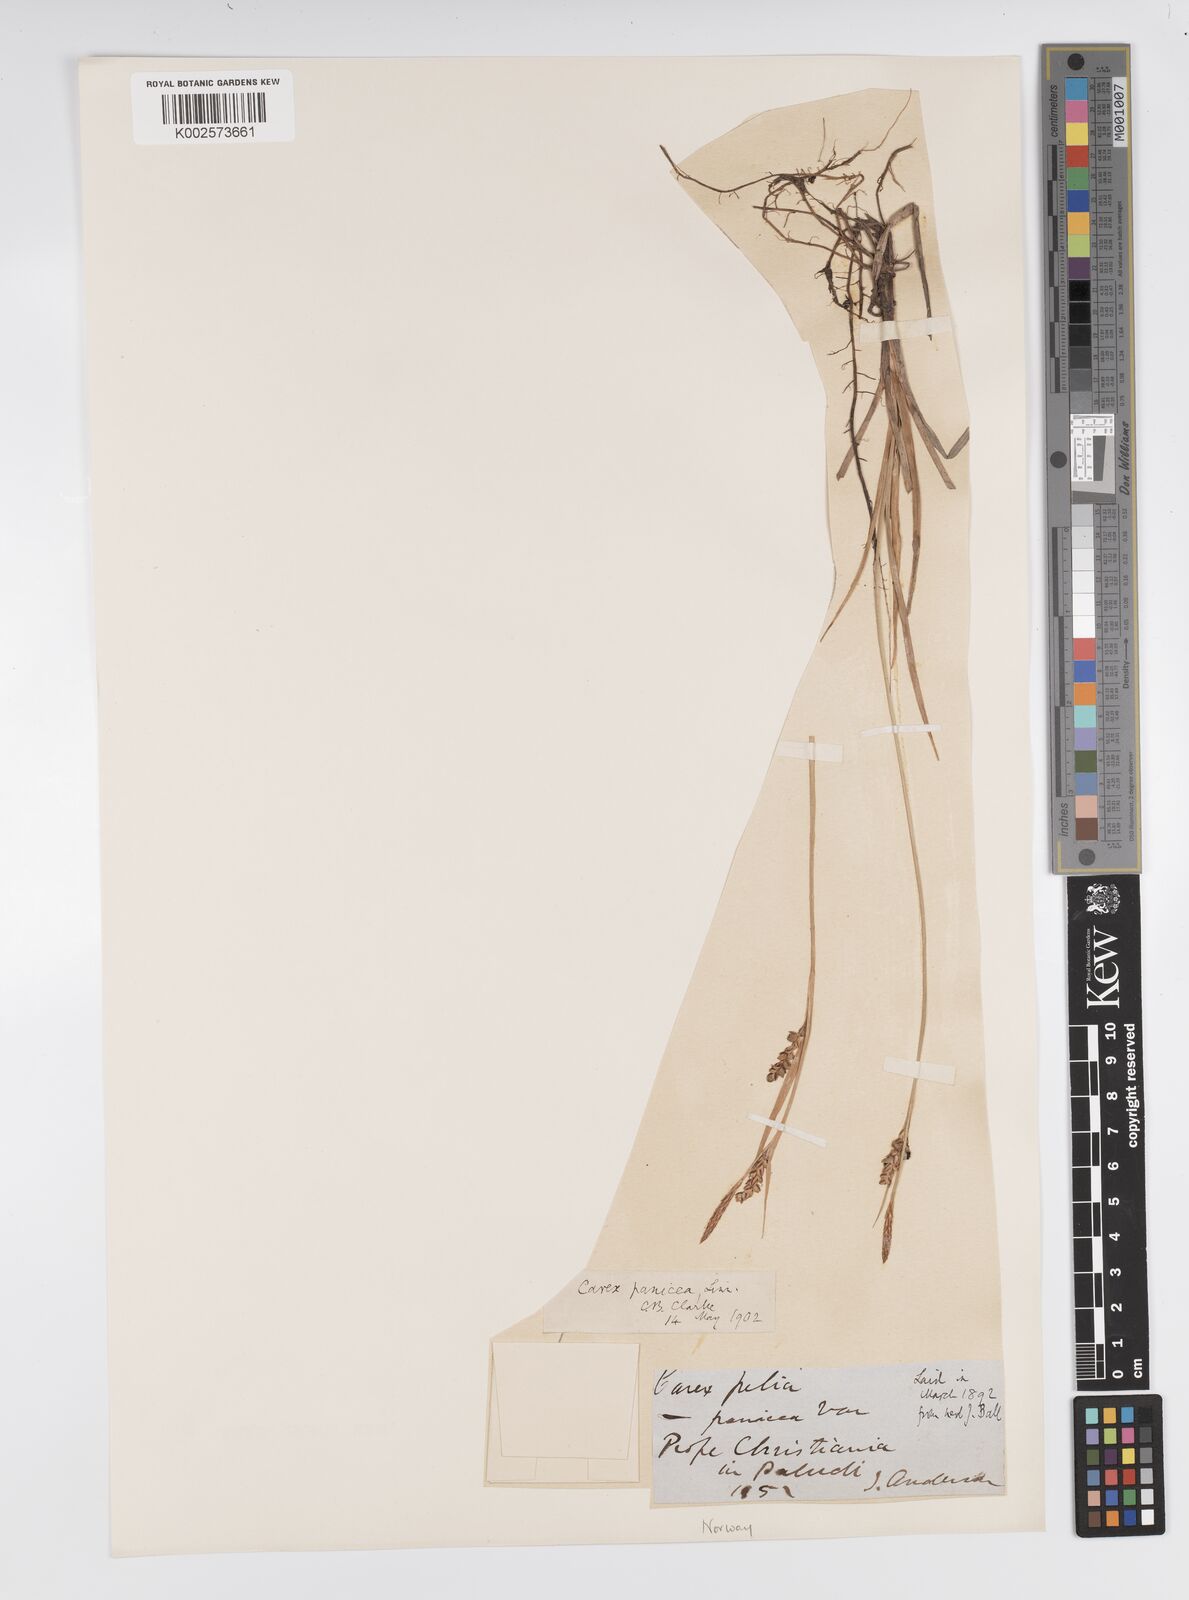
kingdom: Plantae
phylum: Tracheophyta
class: Liliopsida
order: Poales
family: Cyperaceae
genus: Carex
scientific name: Carex panicea
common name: Carnation sedge
